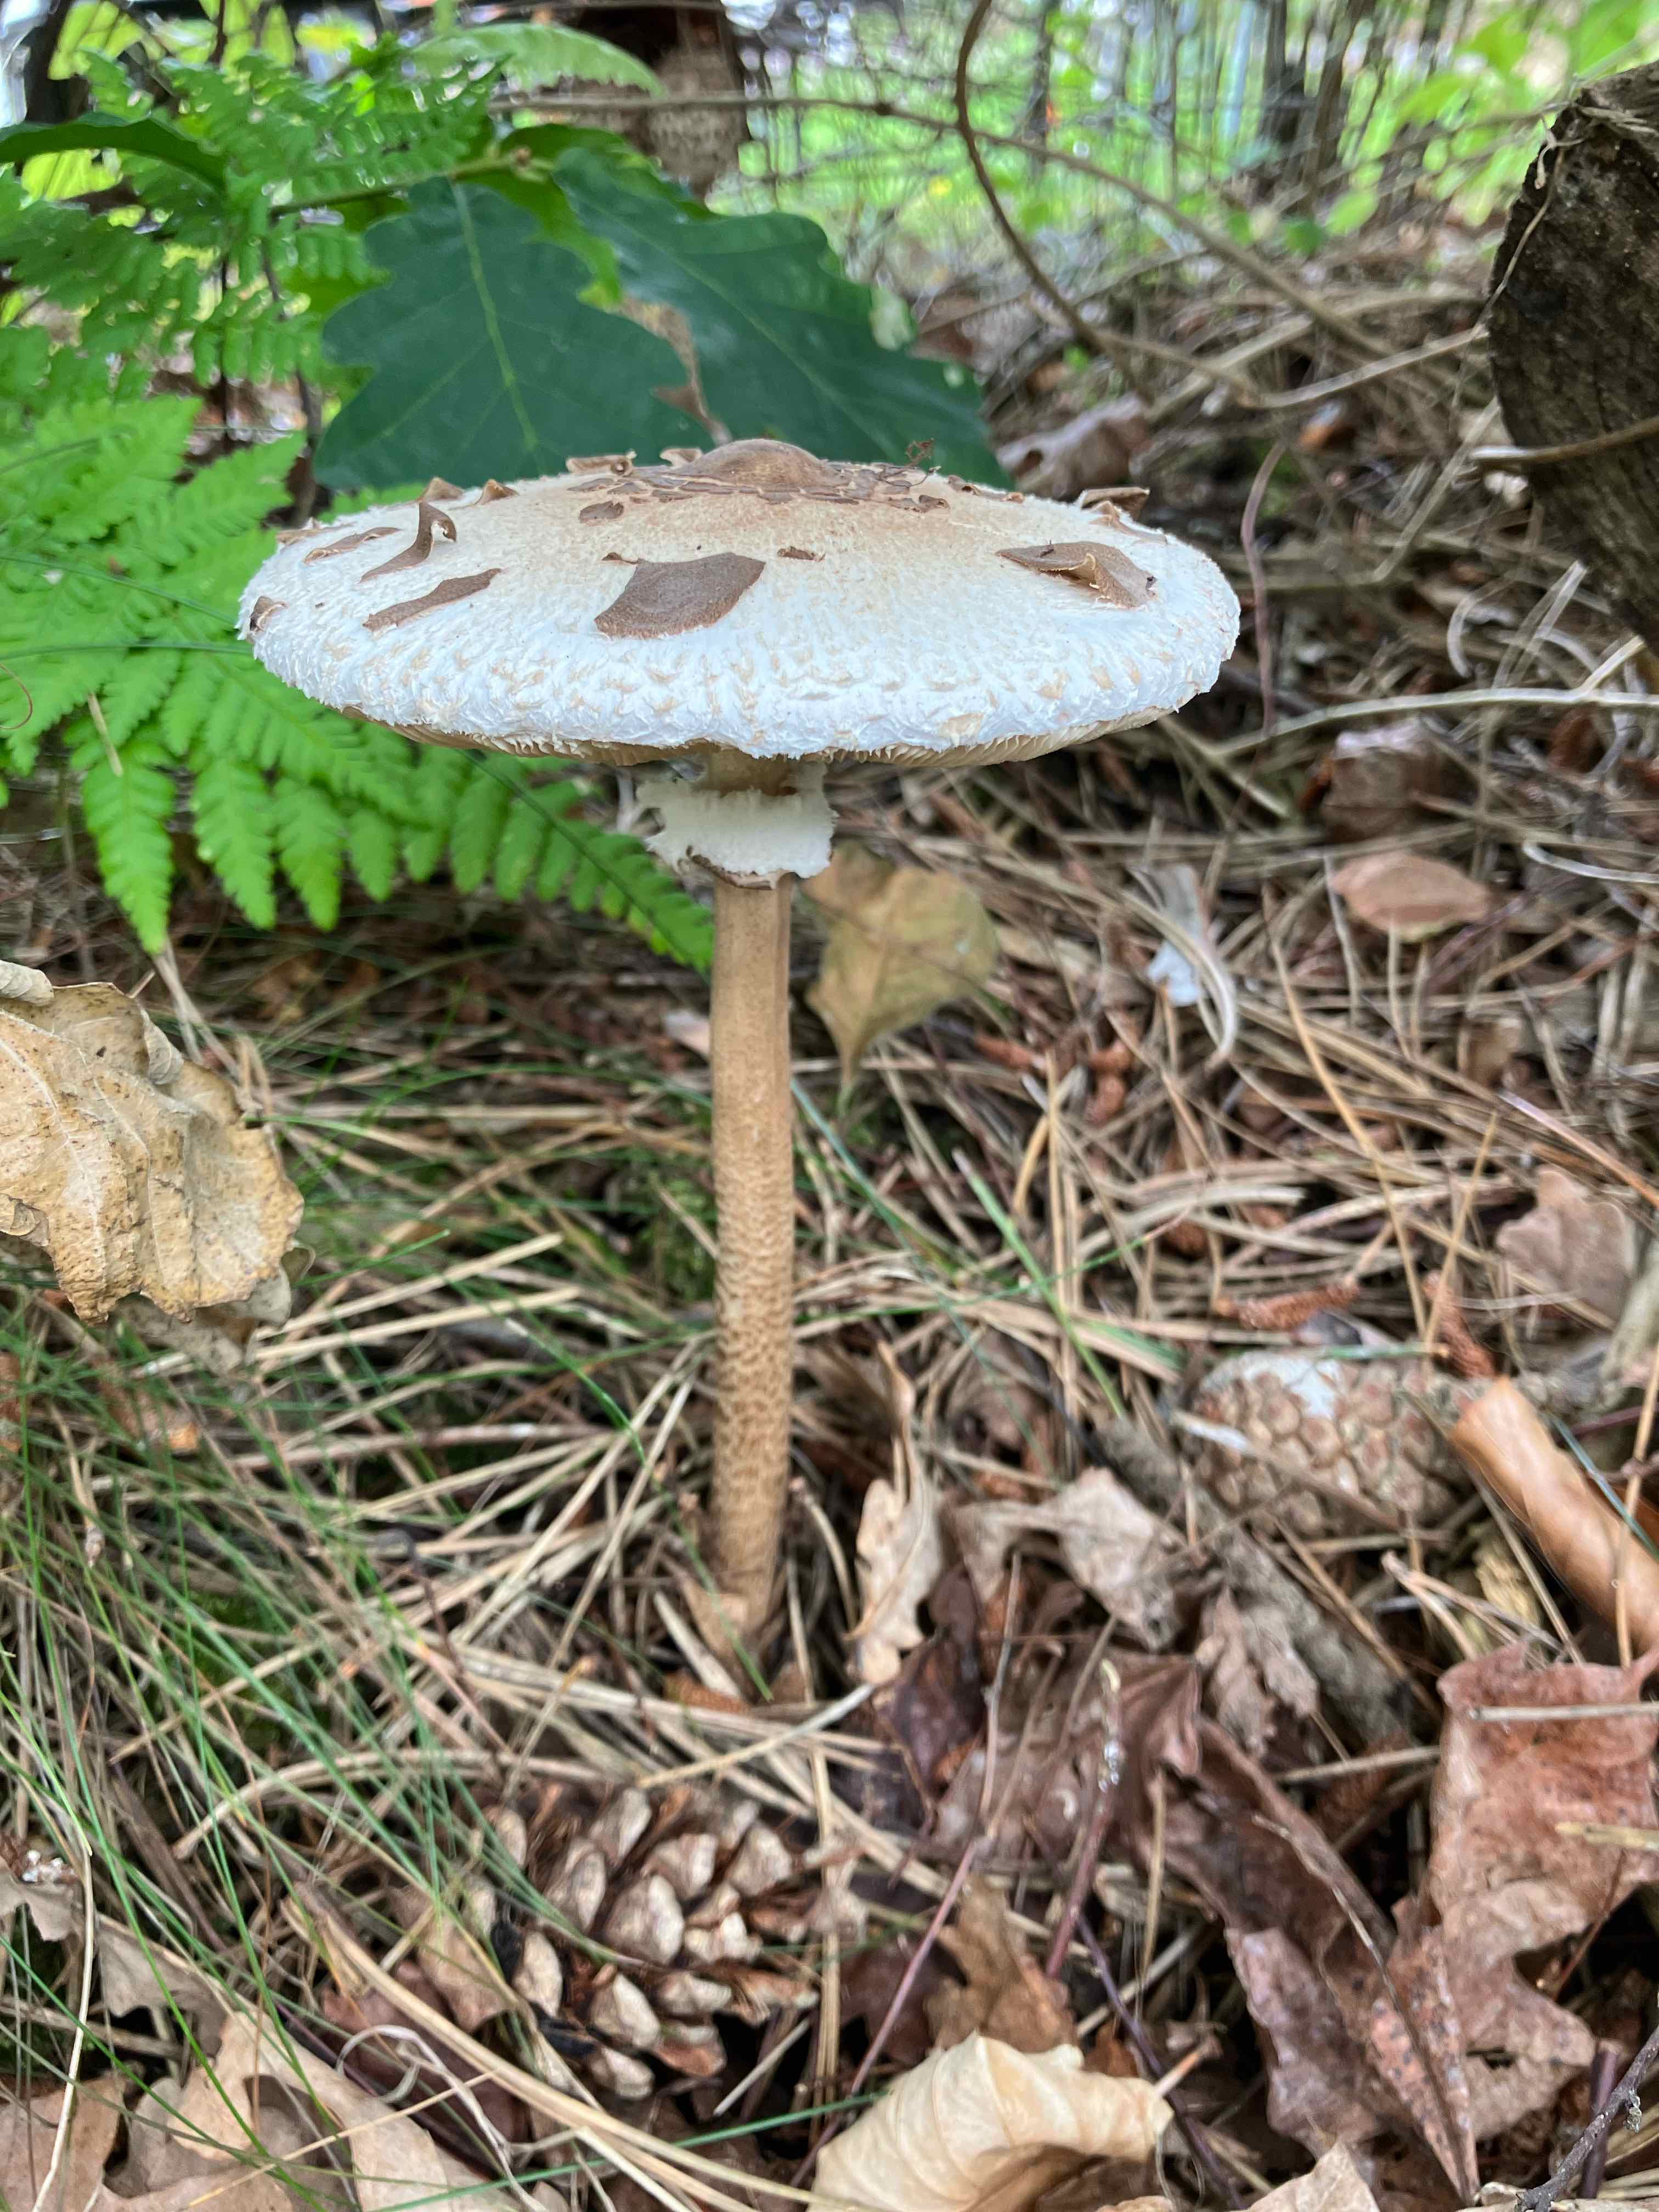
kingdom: Fungi
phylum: Basidiomycota
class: Agaricomycetes
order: Agaricales
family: Agaricaceae
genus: Macrolepiota
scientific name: Macrolepiota procera
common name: stor kæmpeparasolhat
